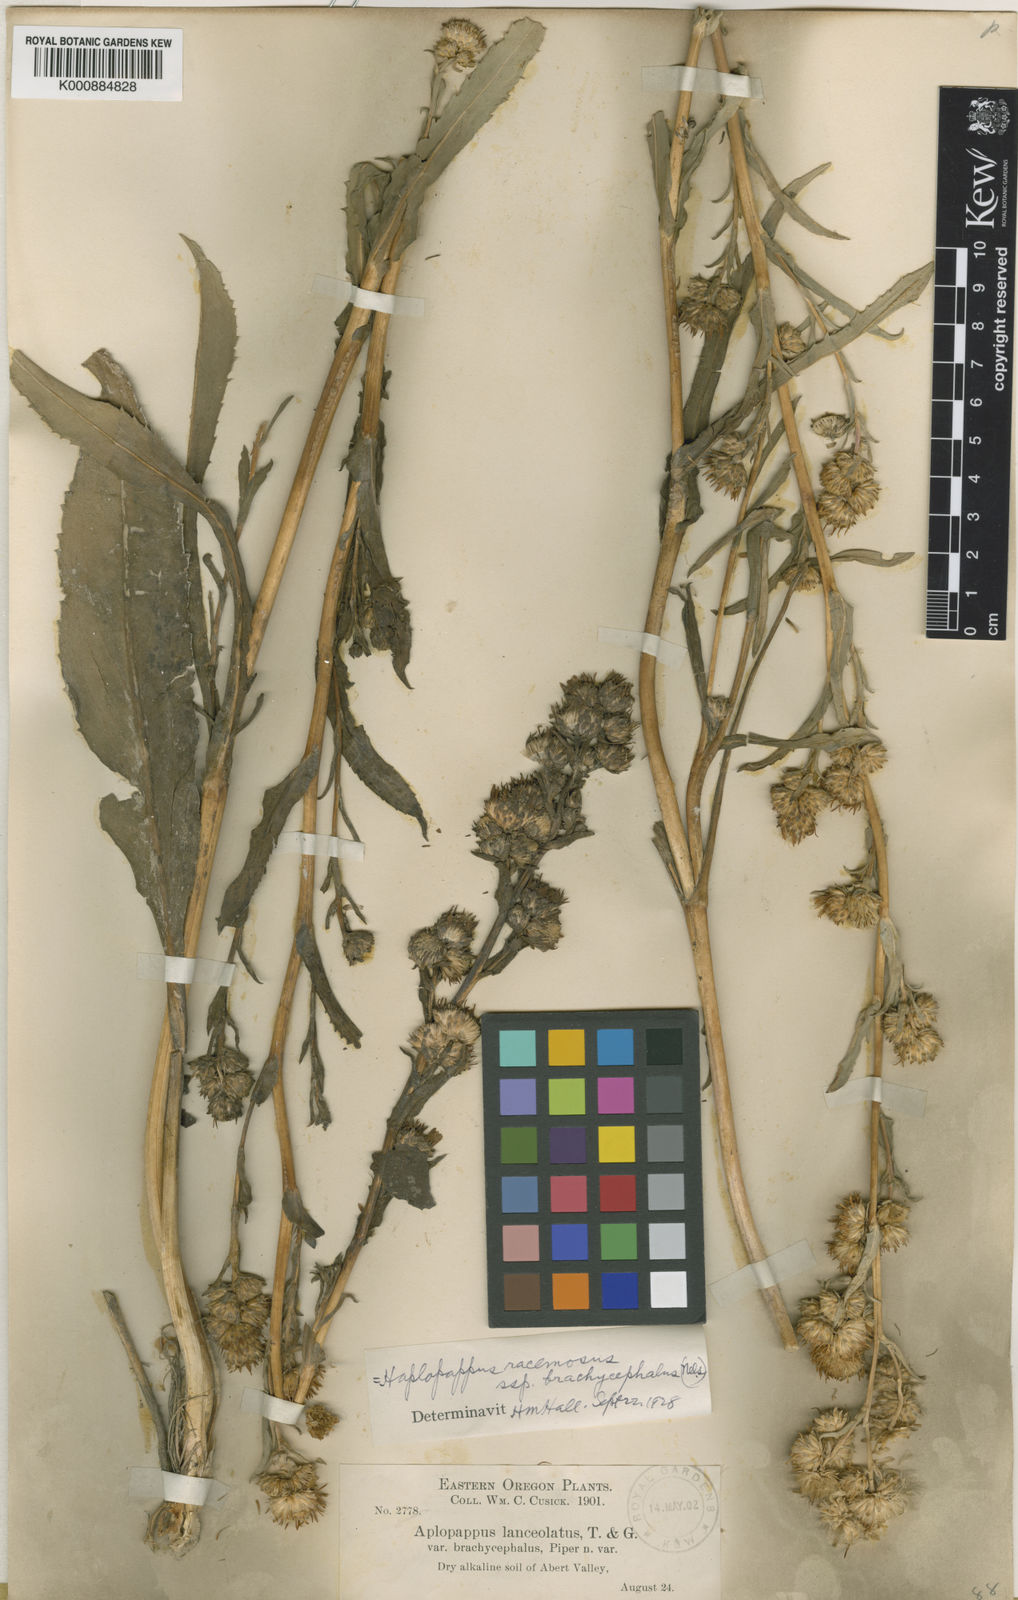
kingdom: Plantae
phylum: Tracheophyta
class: Magnoliopsida
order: Asterales
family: Asteraceae
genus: Pyrrocoma
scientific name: Pyrrocoma racemosa
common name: Clustered goldenweed
